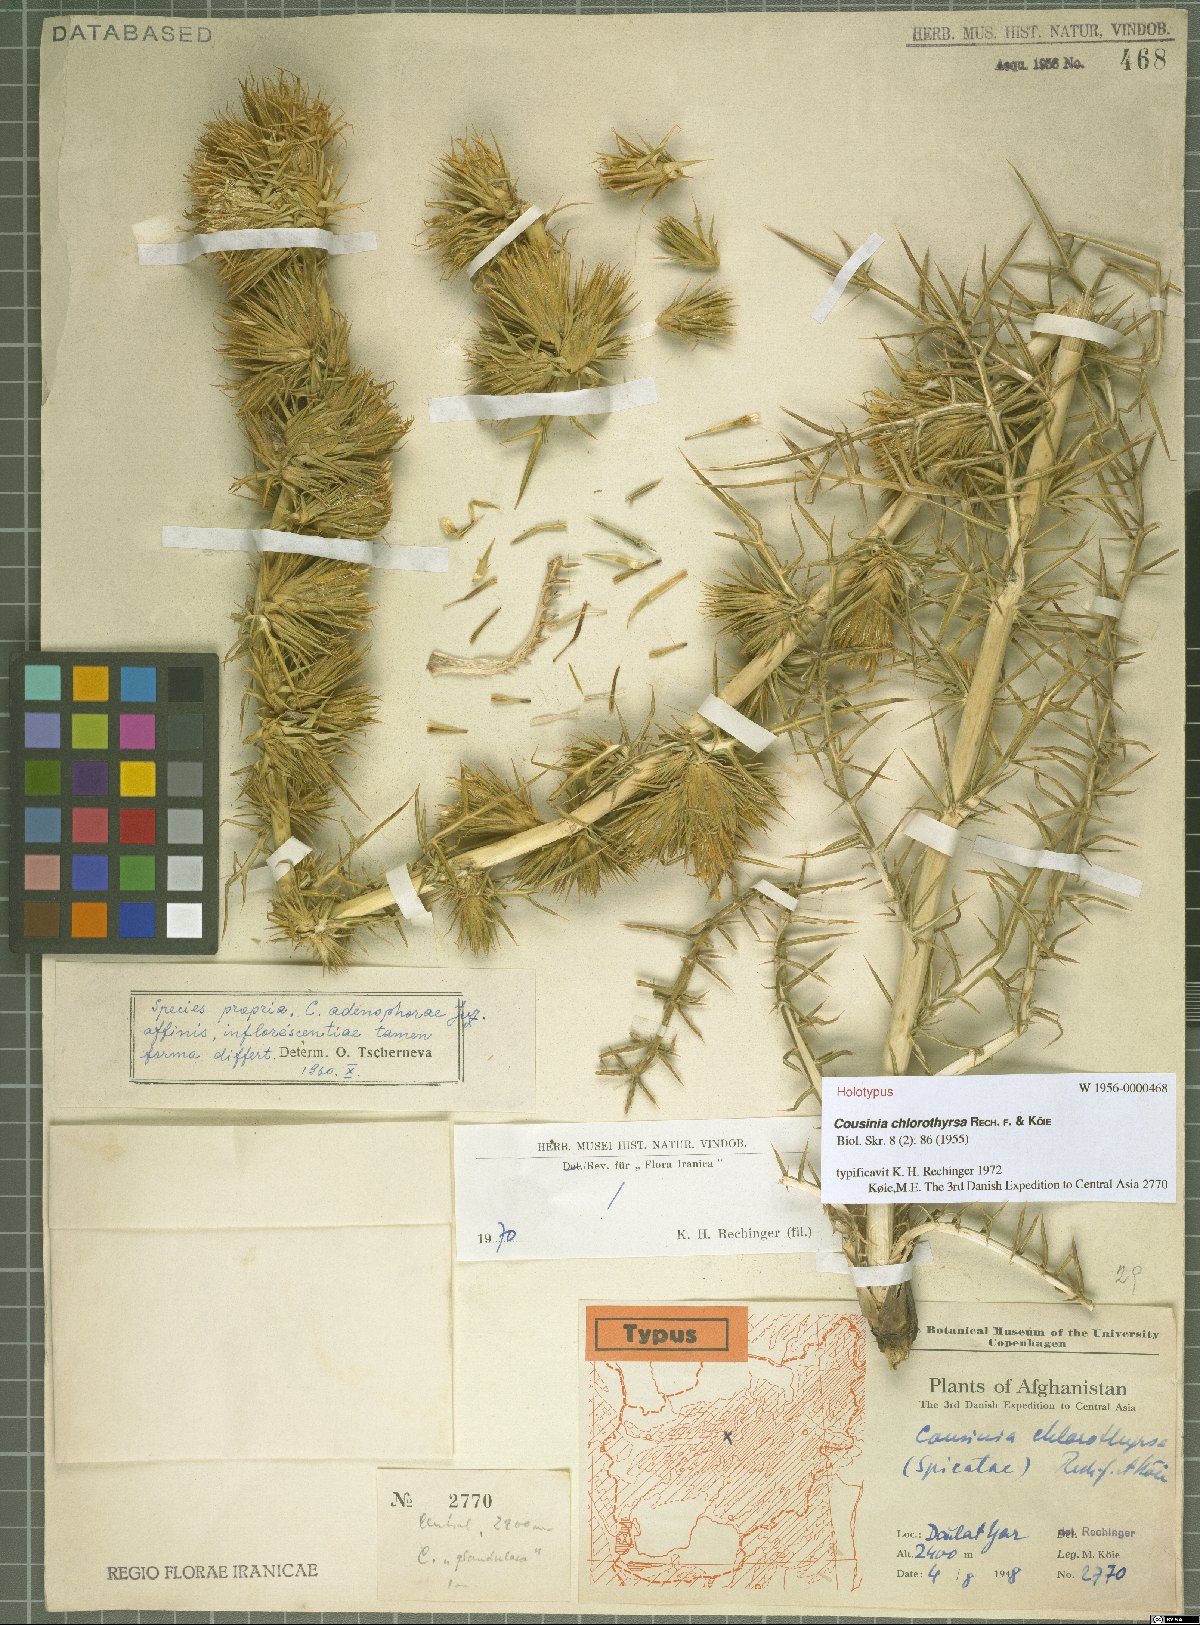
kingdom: Plantae
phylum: Tracheophyta
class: Magnoliopsida
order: Asterales
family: Asteraceae
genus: Cousinia
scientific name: Cousinia chlorothyrsa
